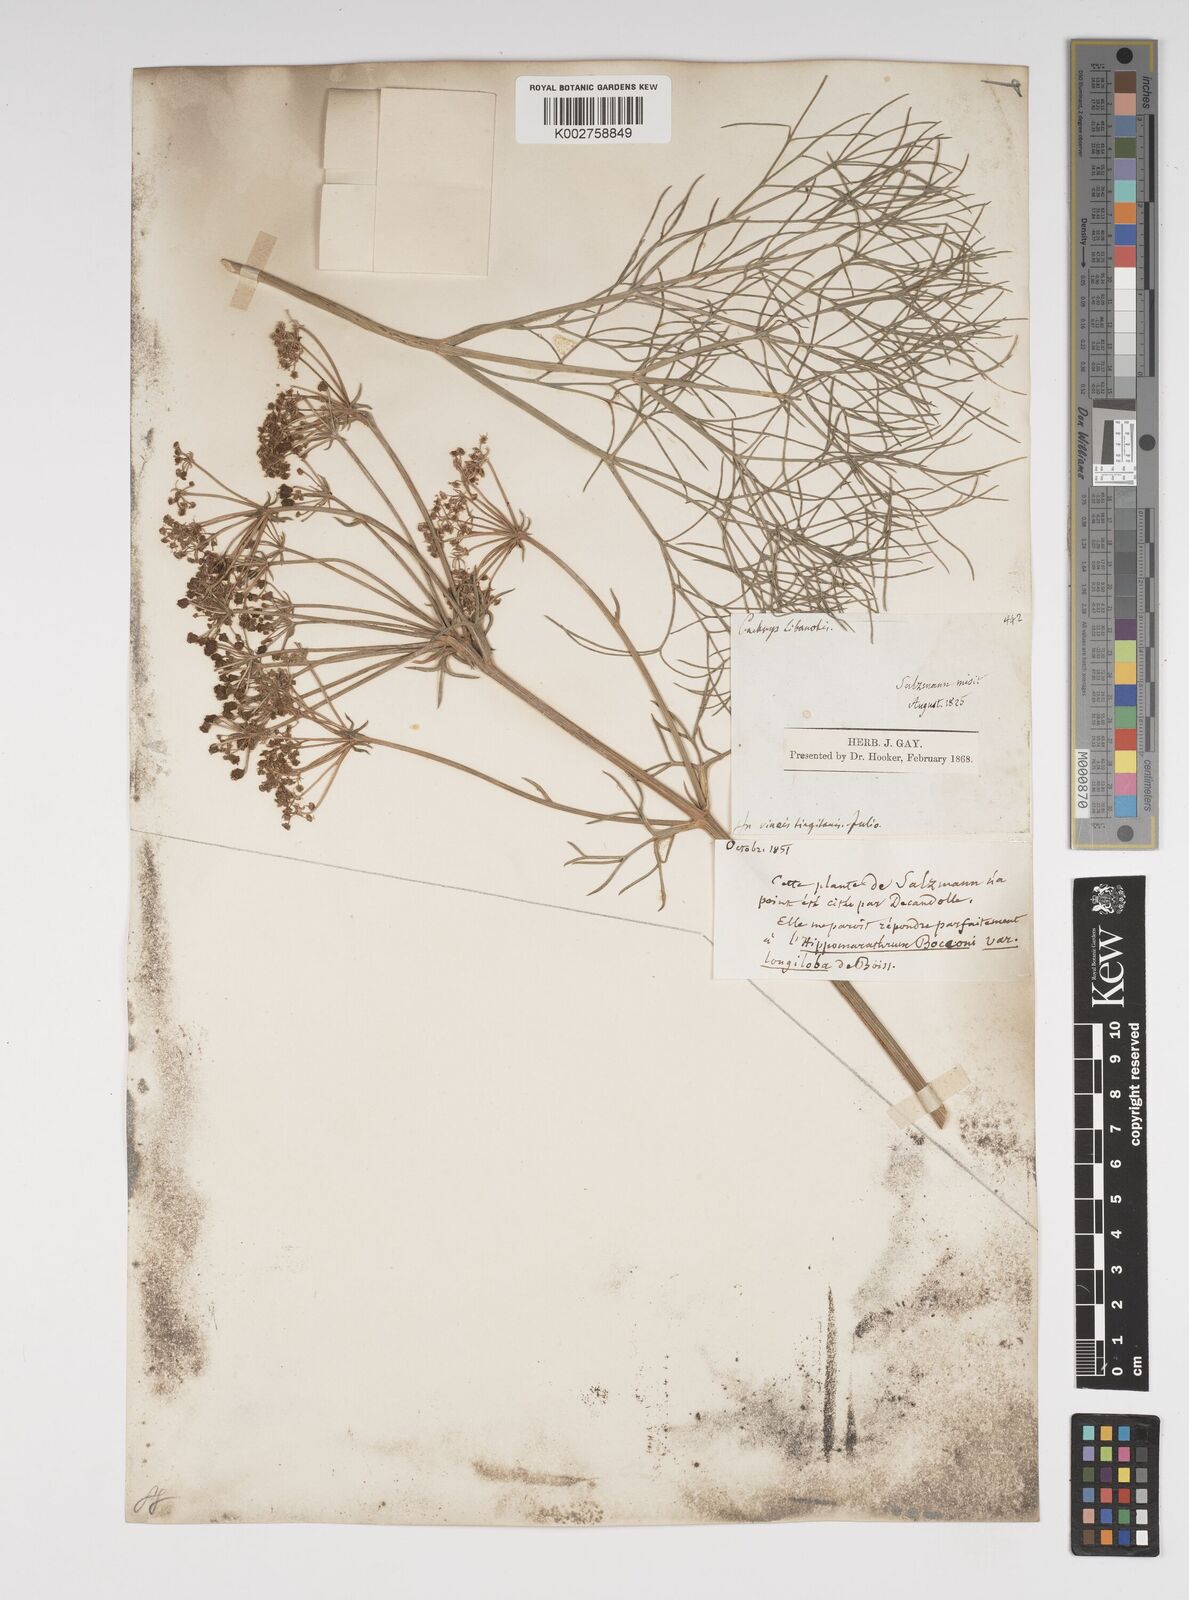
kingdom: Plantae
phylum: Tracheophyta
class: Magnoliopsida
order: Apiales
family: Apiaceae
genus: Cachrys
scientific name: Cachrys libanotis
